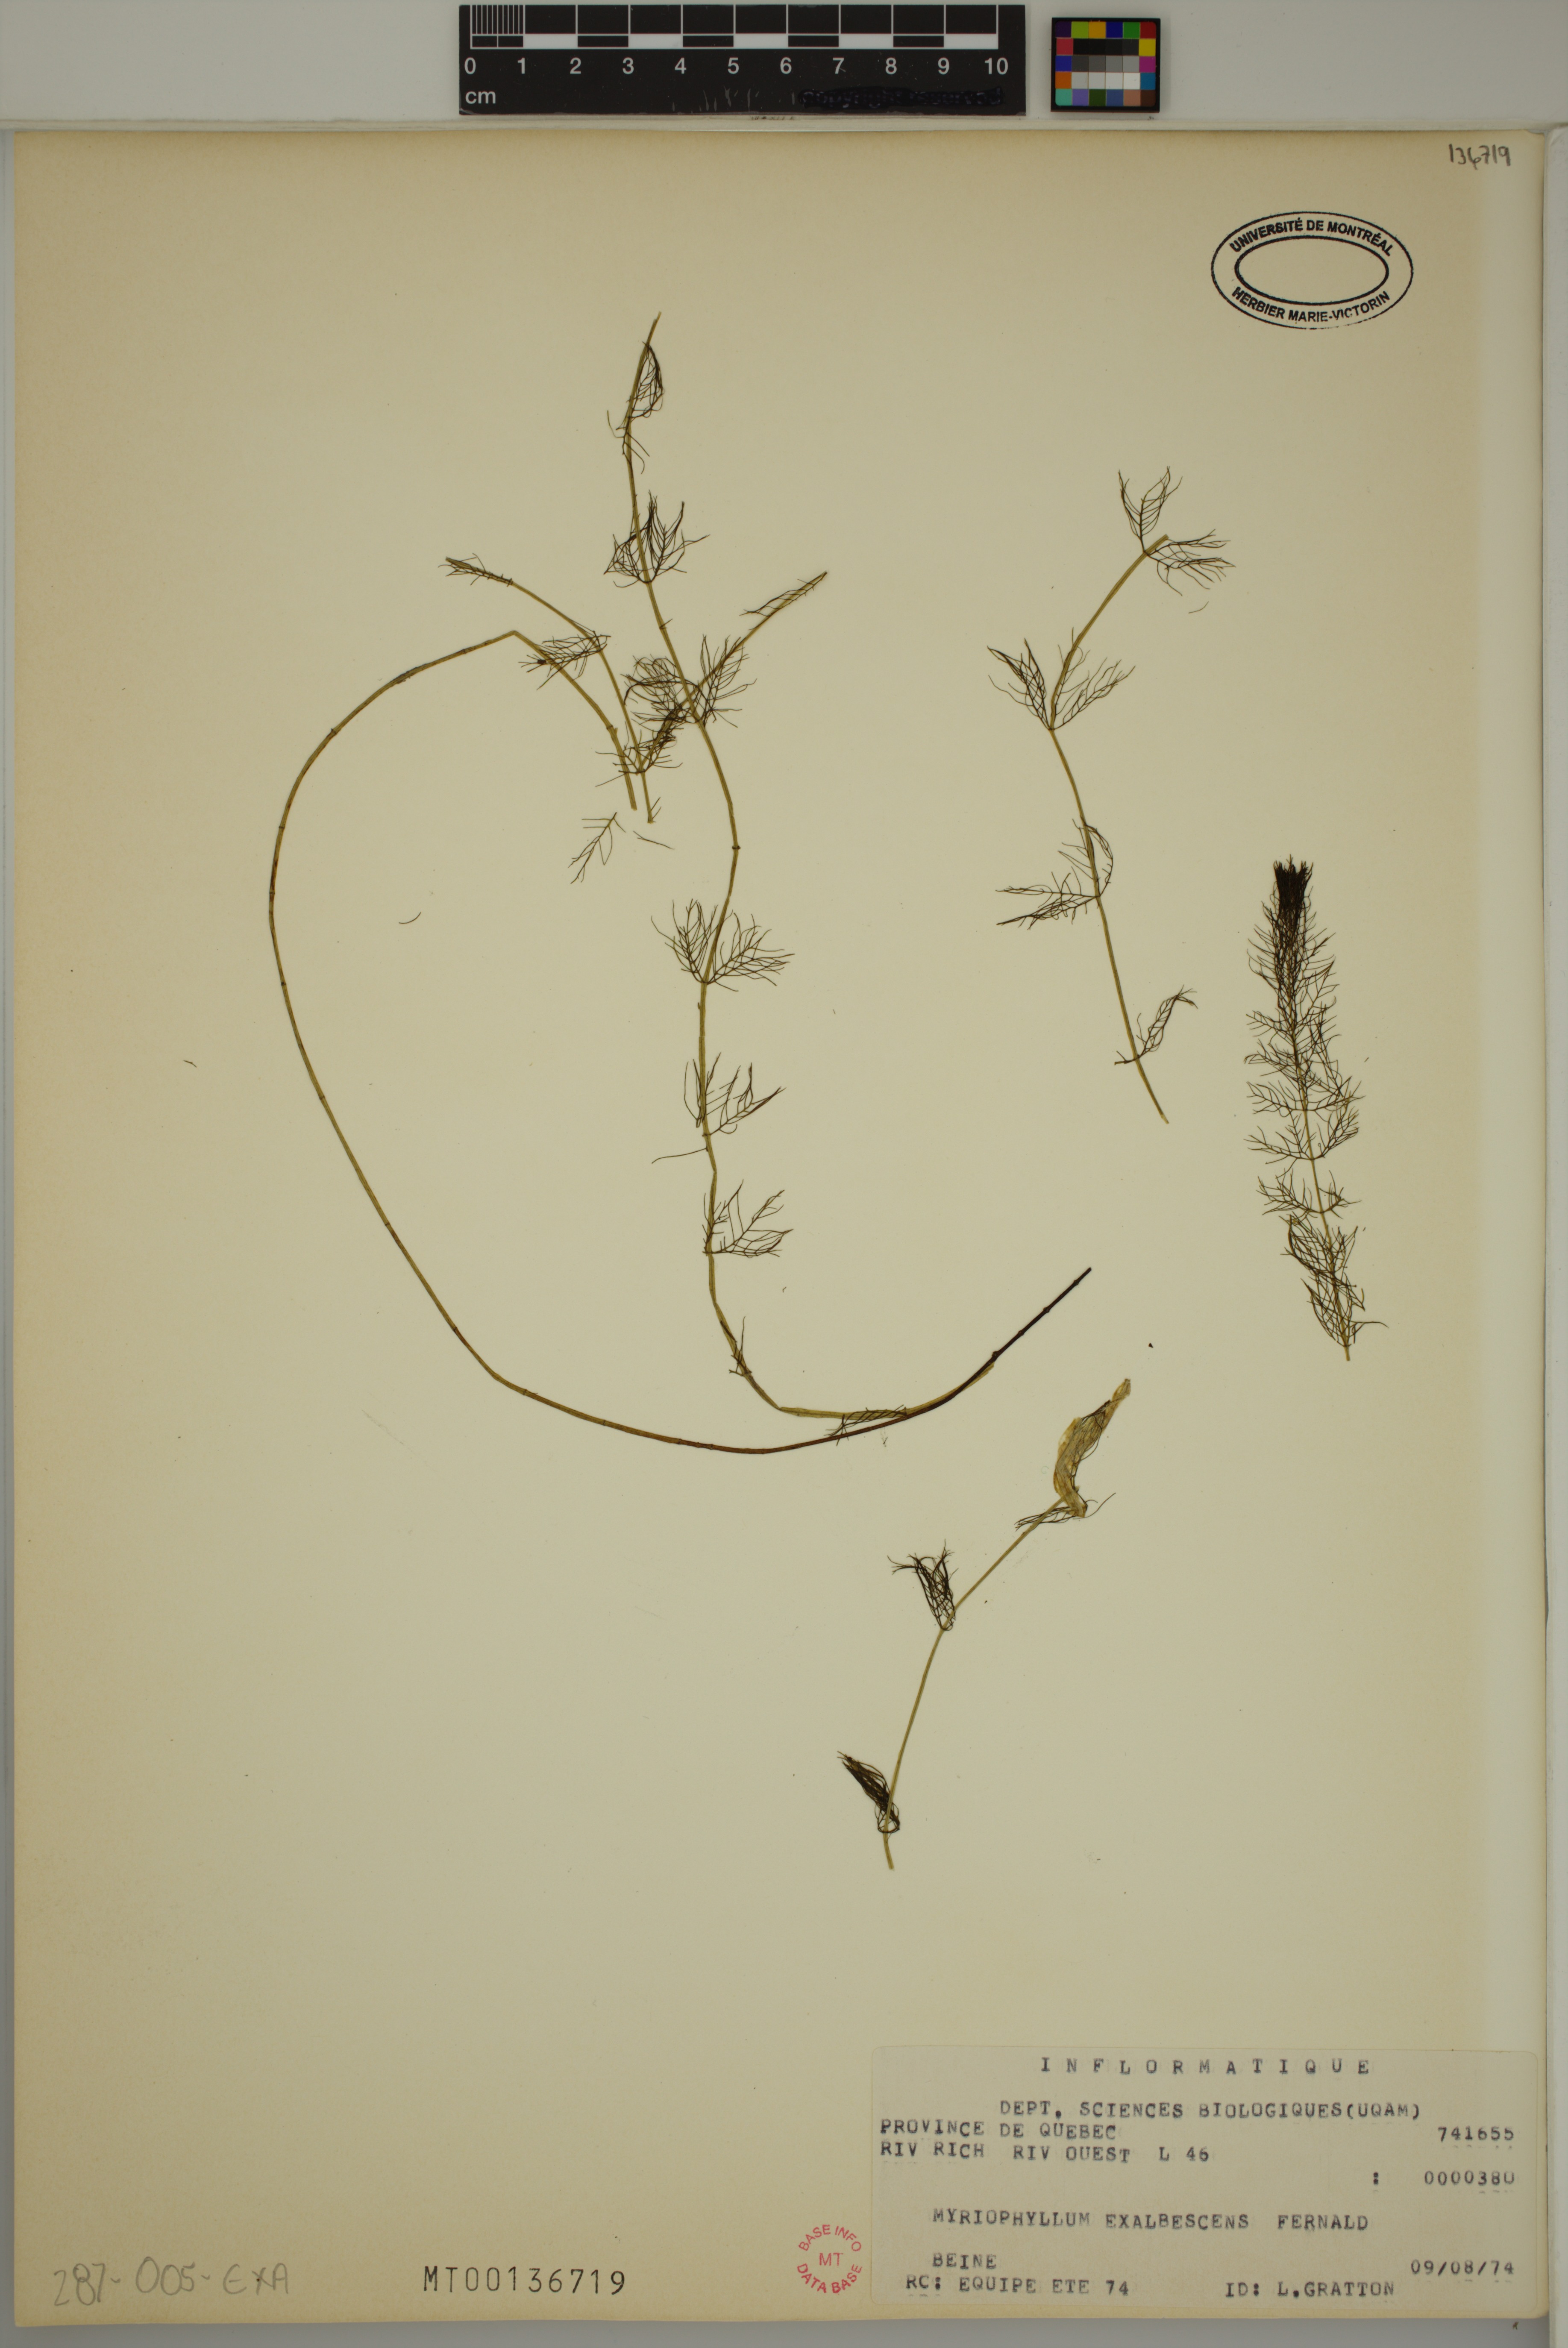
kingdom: Plantae
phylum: Tracheophyta
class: Magnoliopsida
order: Saxifragales
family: Haloragaceae
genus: Myriophyllum
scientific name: Myriophyllum sibiricum
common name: Siberian water-milfoil
